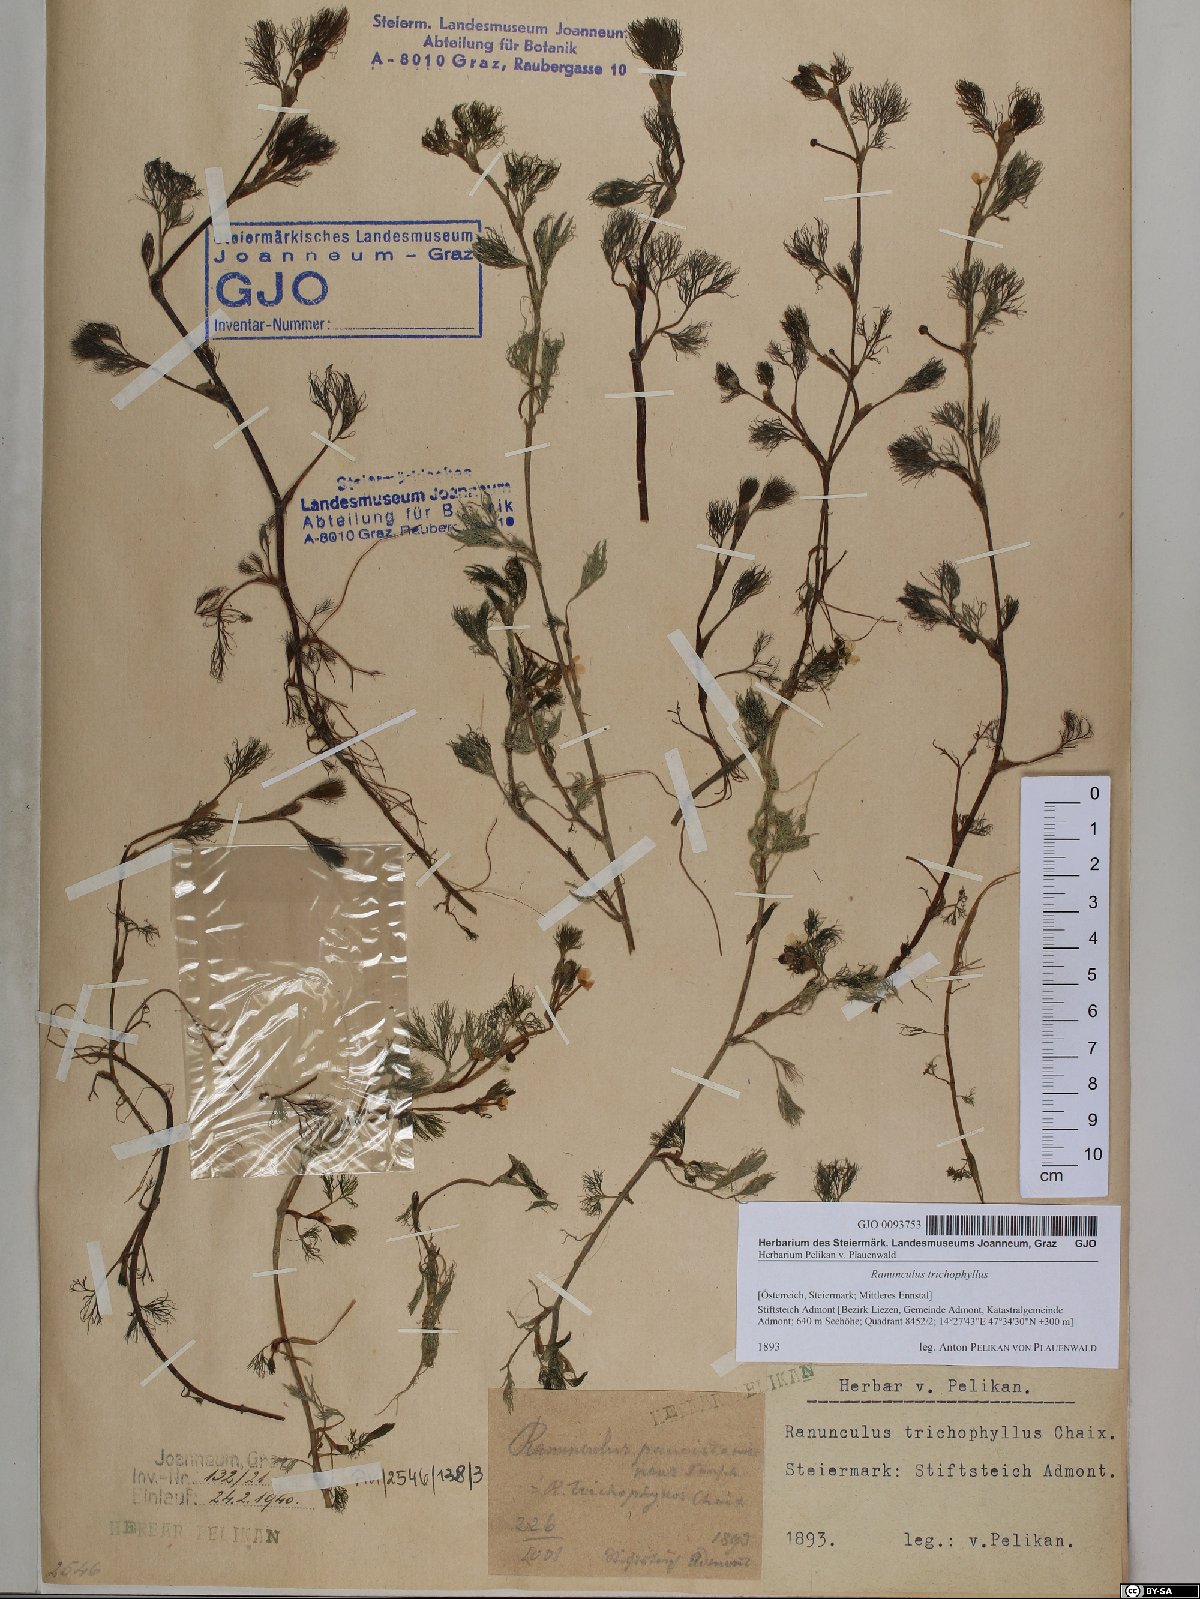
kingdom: Plantae
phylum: Tracheophyta
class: Magnoliopsida
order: Ranunculales
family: Ranunculaceae
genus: Ranunculus
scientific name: Ranunculus trichophyllus
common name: Thread-leaved water-crowfoot
